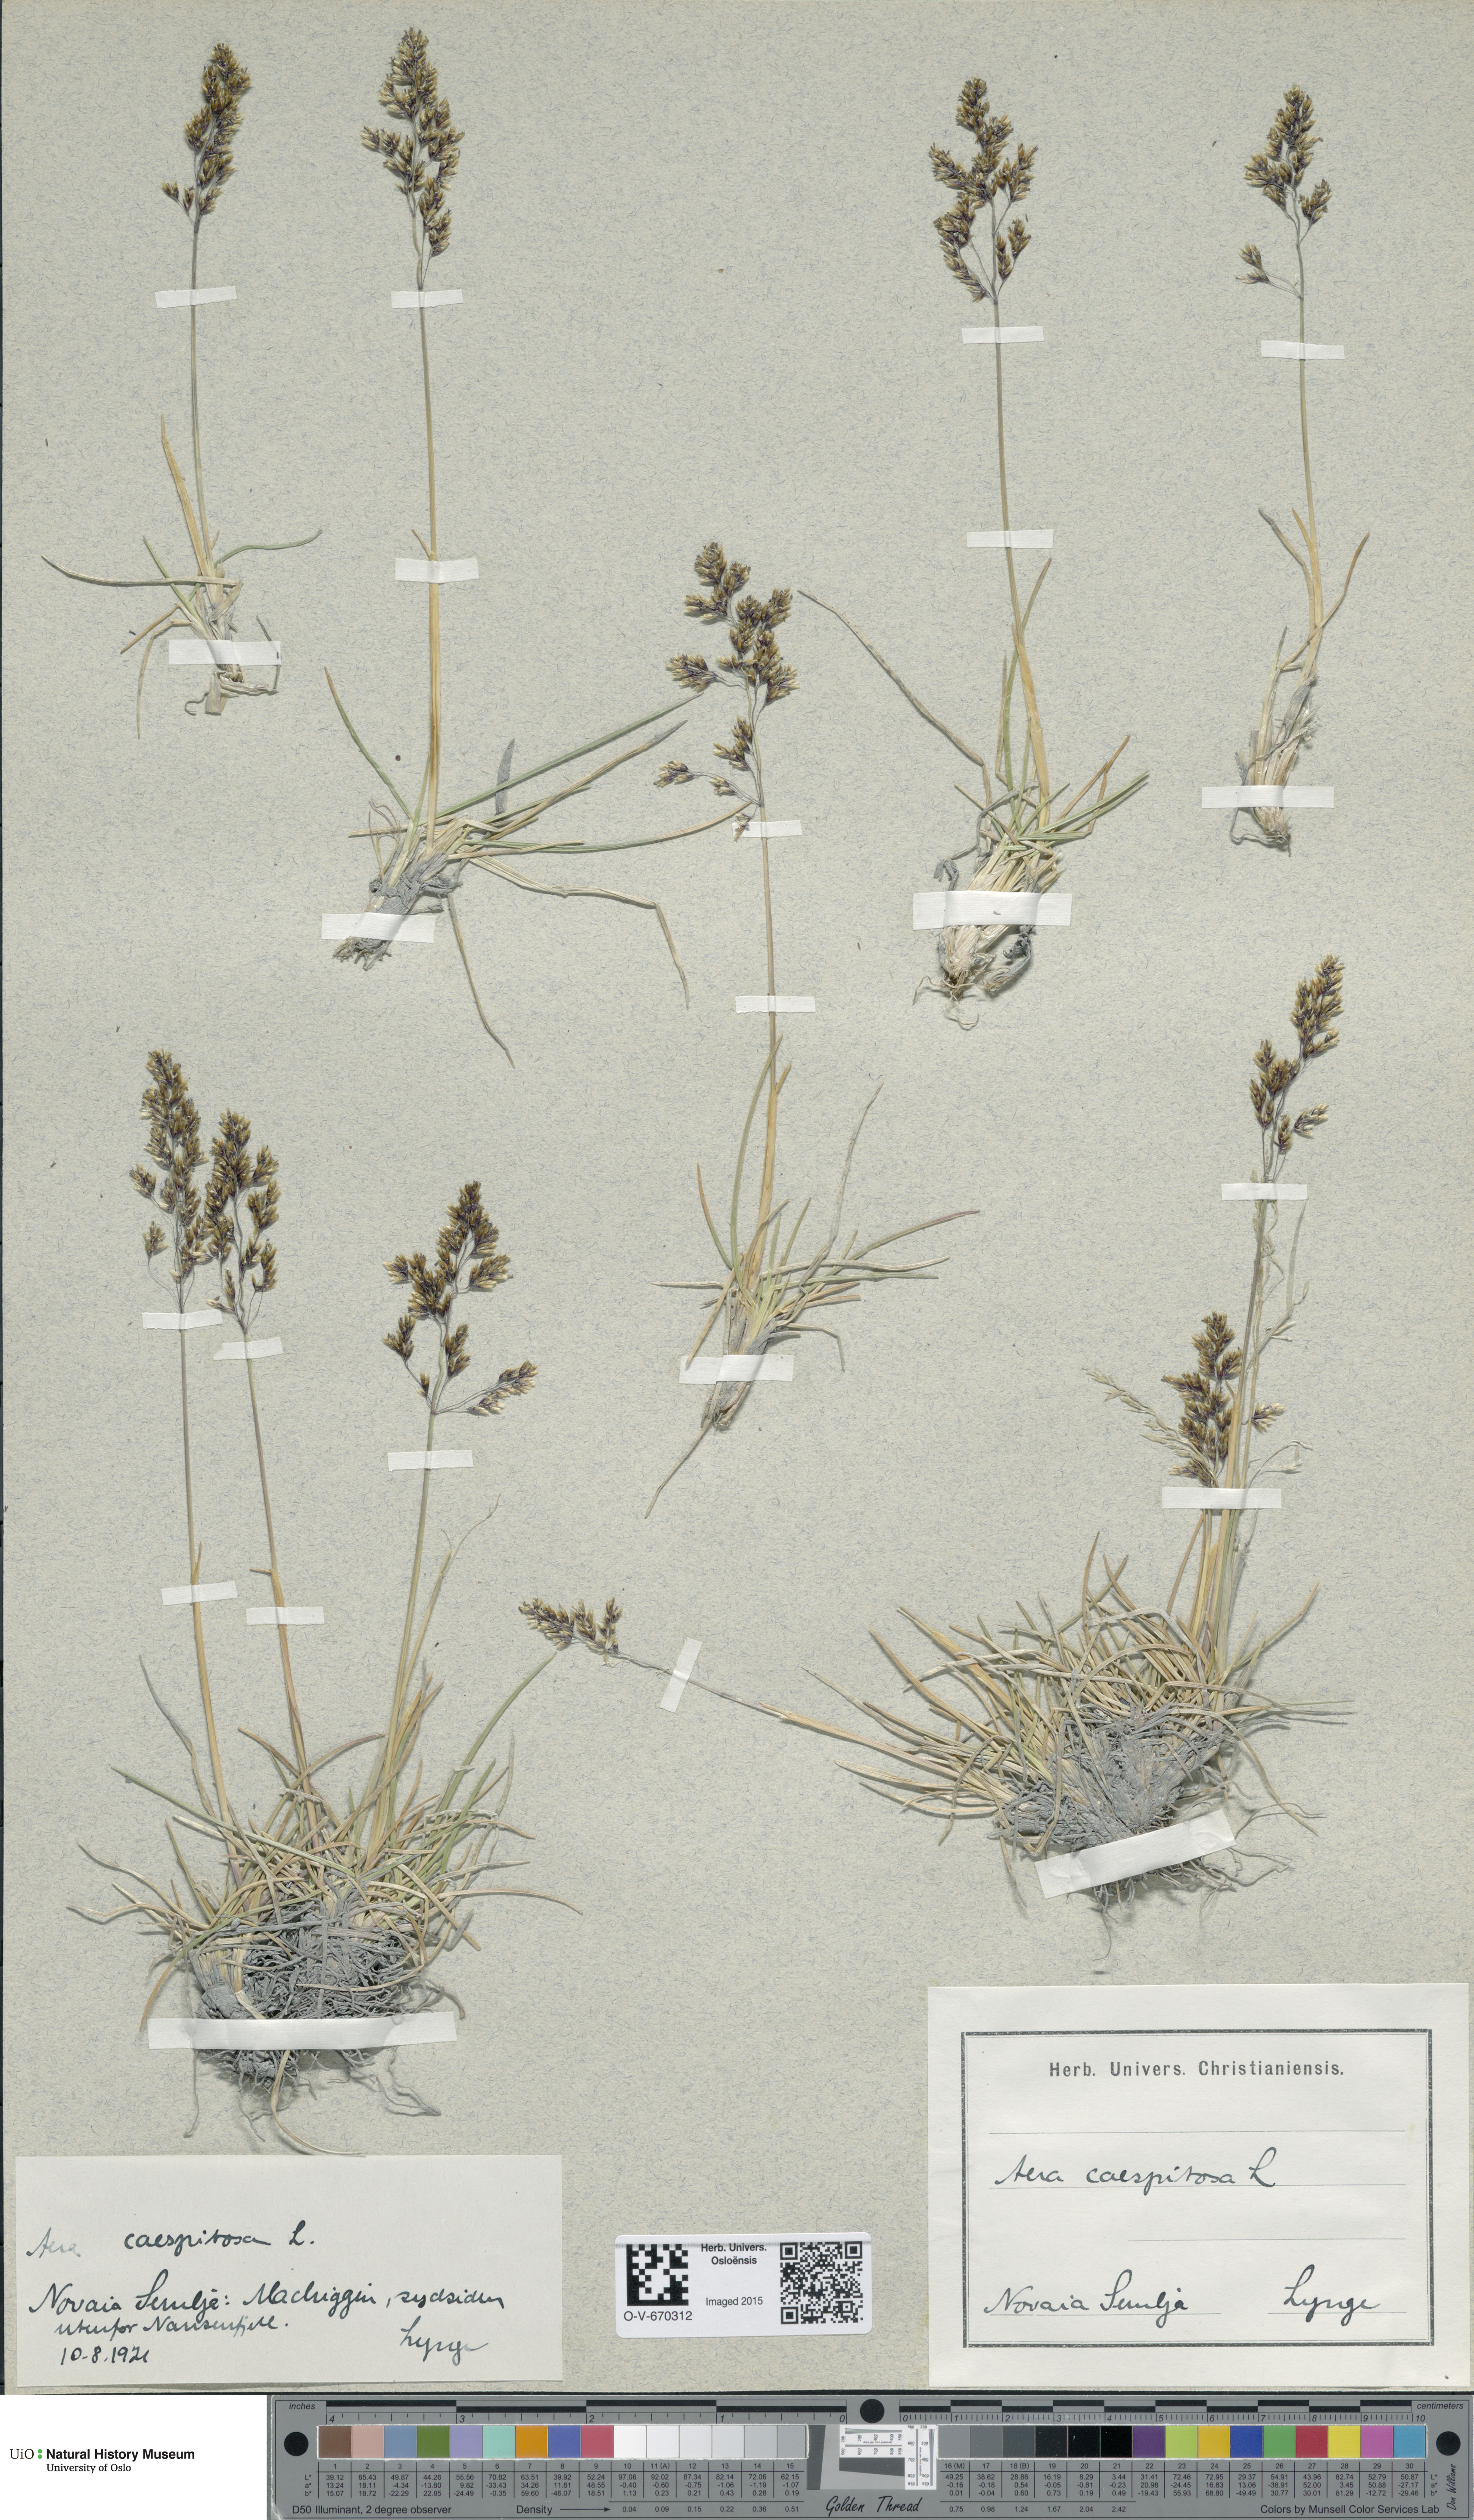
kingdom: Plantae
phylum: Tracheophyta
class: Liliopsida
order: Poales
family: Poaceae
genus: Deschampsia
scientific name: Deschampsia cespitosa
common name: Tufted hair-grass
